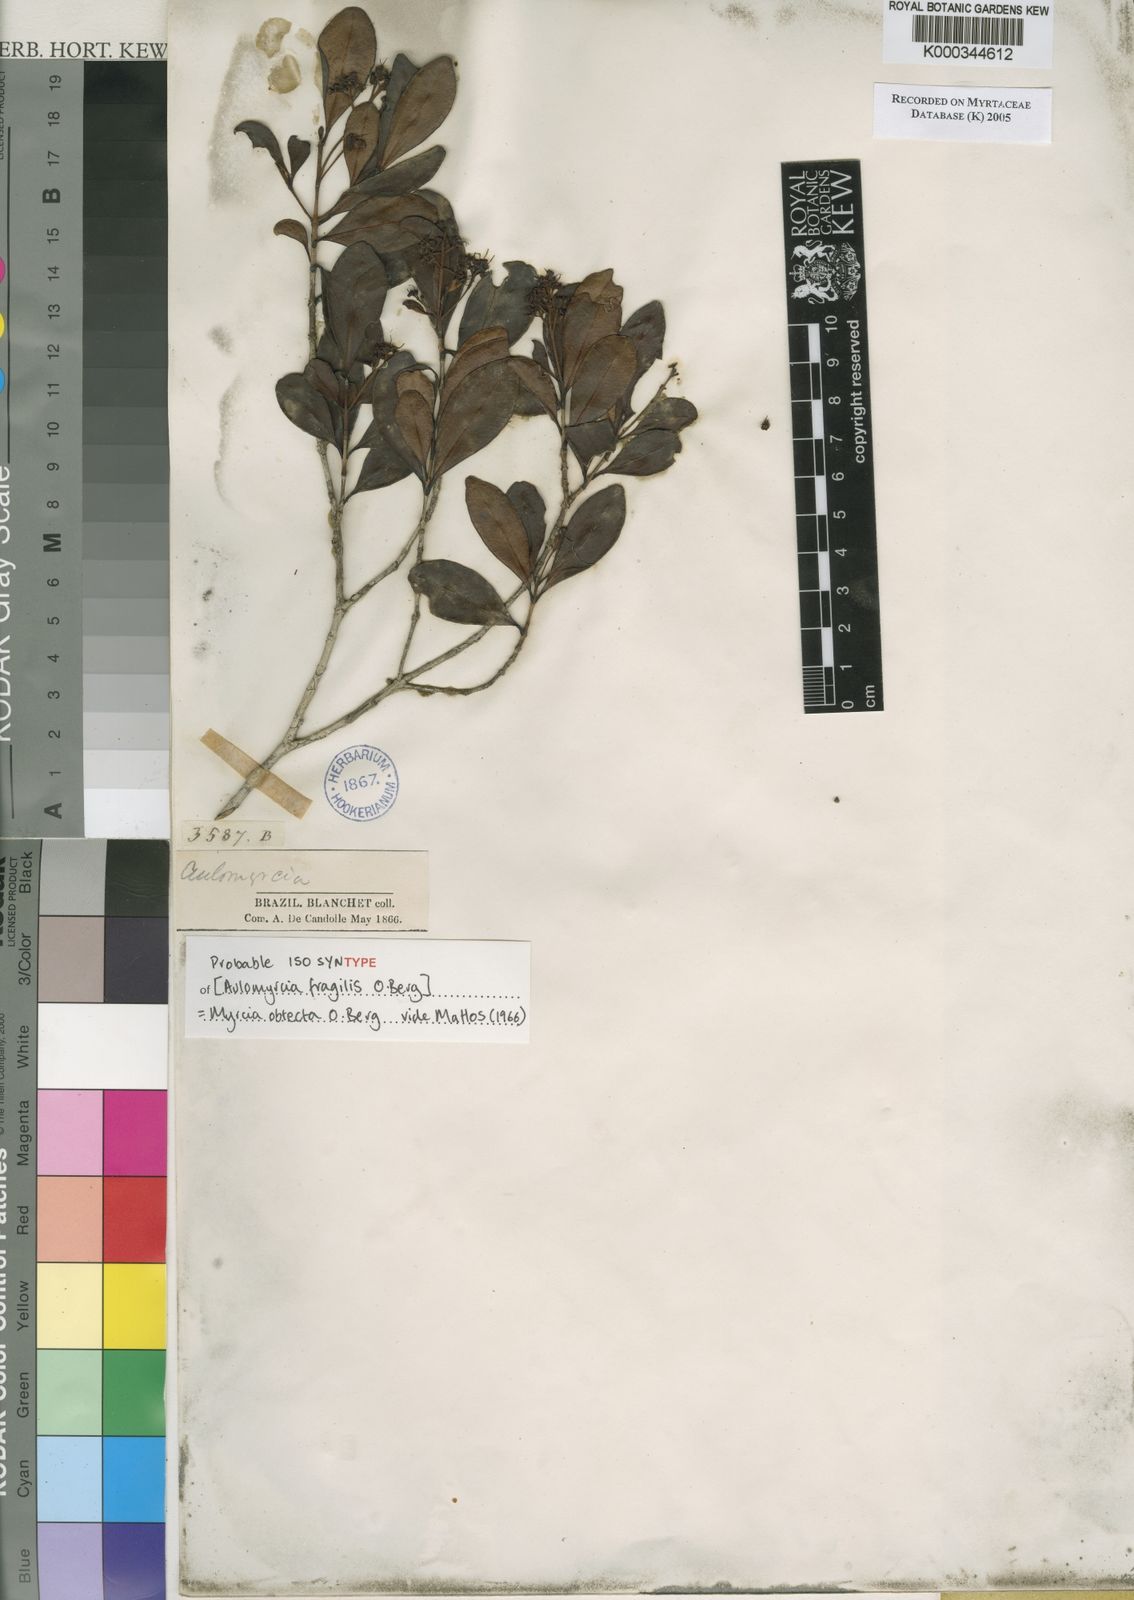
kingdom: Plantae
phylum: Tracheophyta
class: Magnoliopsida
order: Myrtales
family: Myrtaceae
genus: Myrcia
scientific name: Myrcia guianensis
